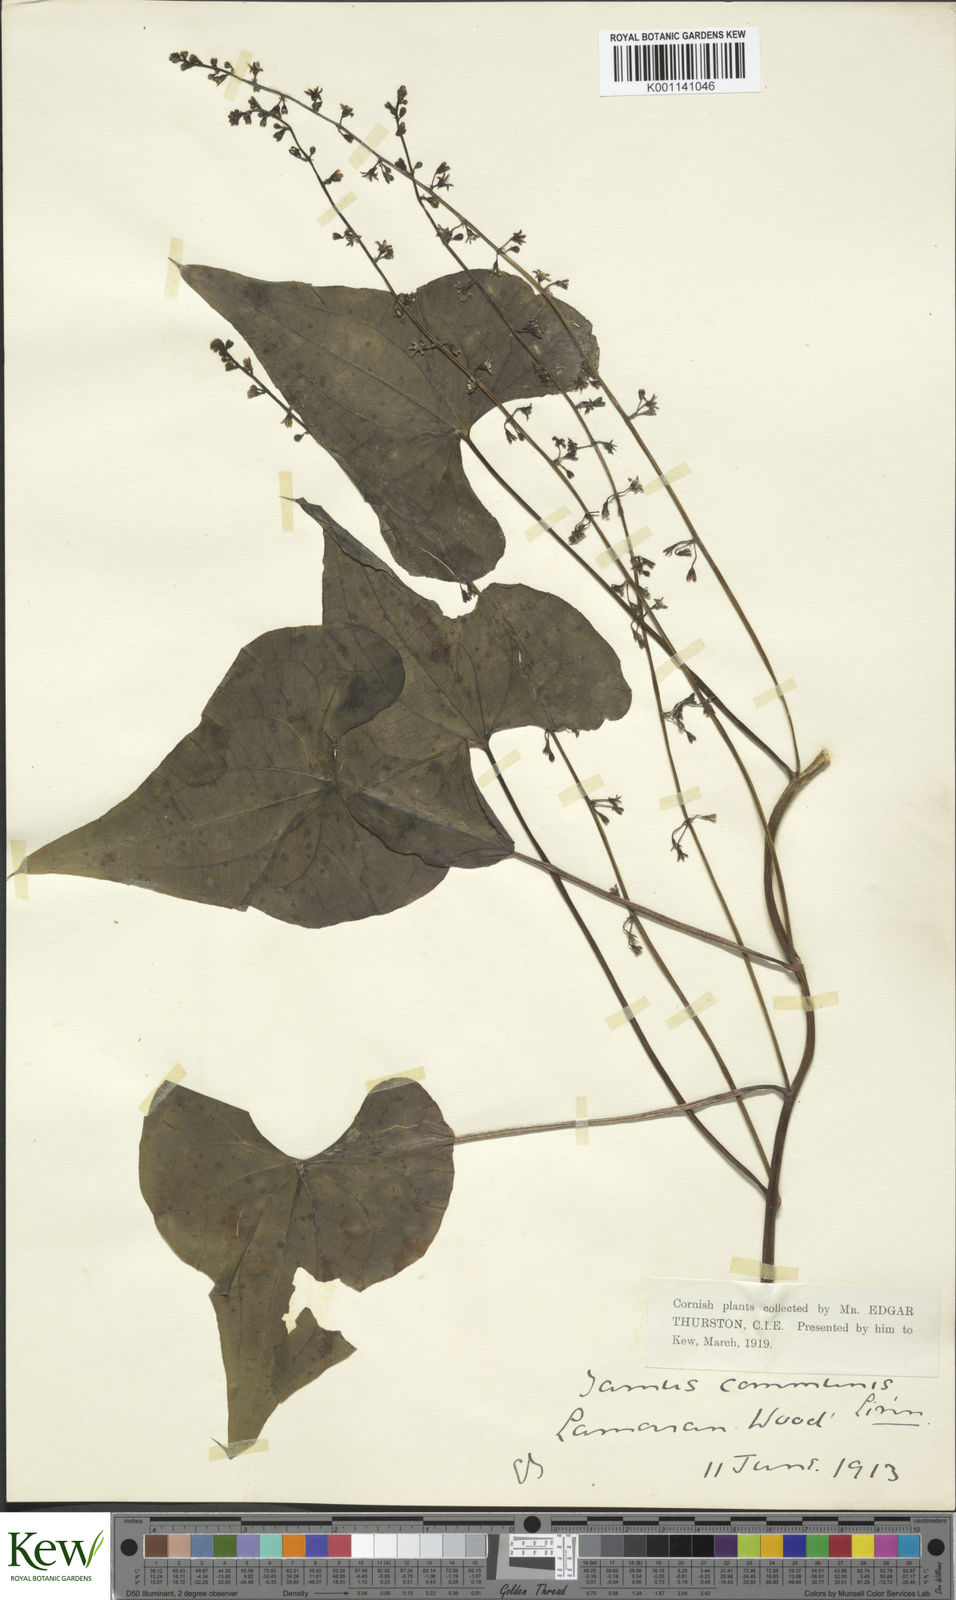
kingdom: Plantae
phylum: Tracheophyta
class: Liliopsida
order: Dioscoreales
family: Dioscoreaceae
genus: Dioscorea
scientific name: Dioscorea communis
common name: Black-bindweed
